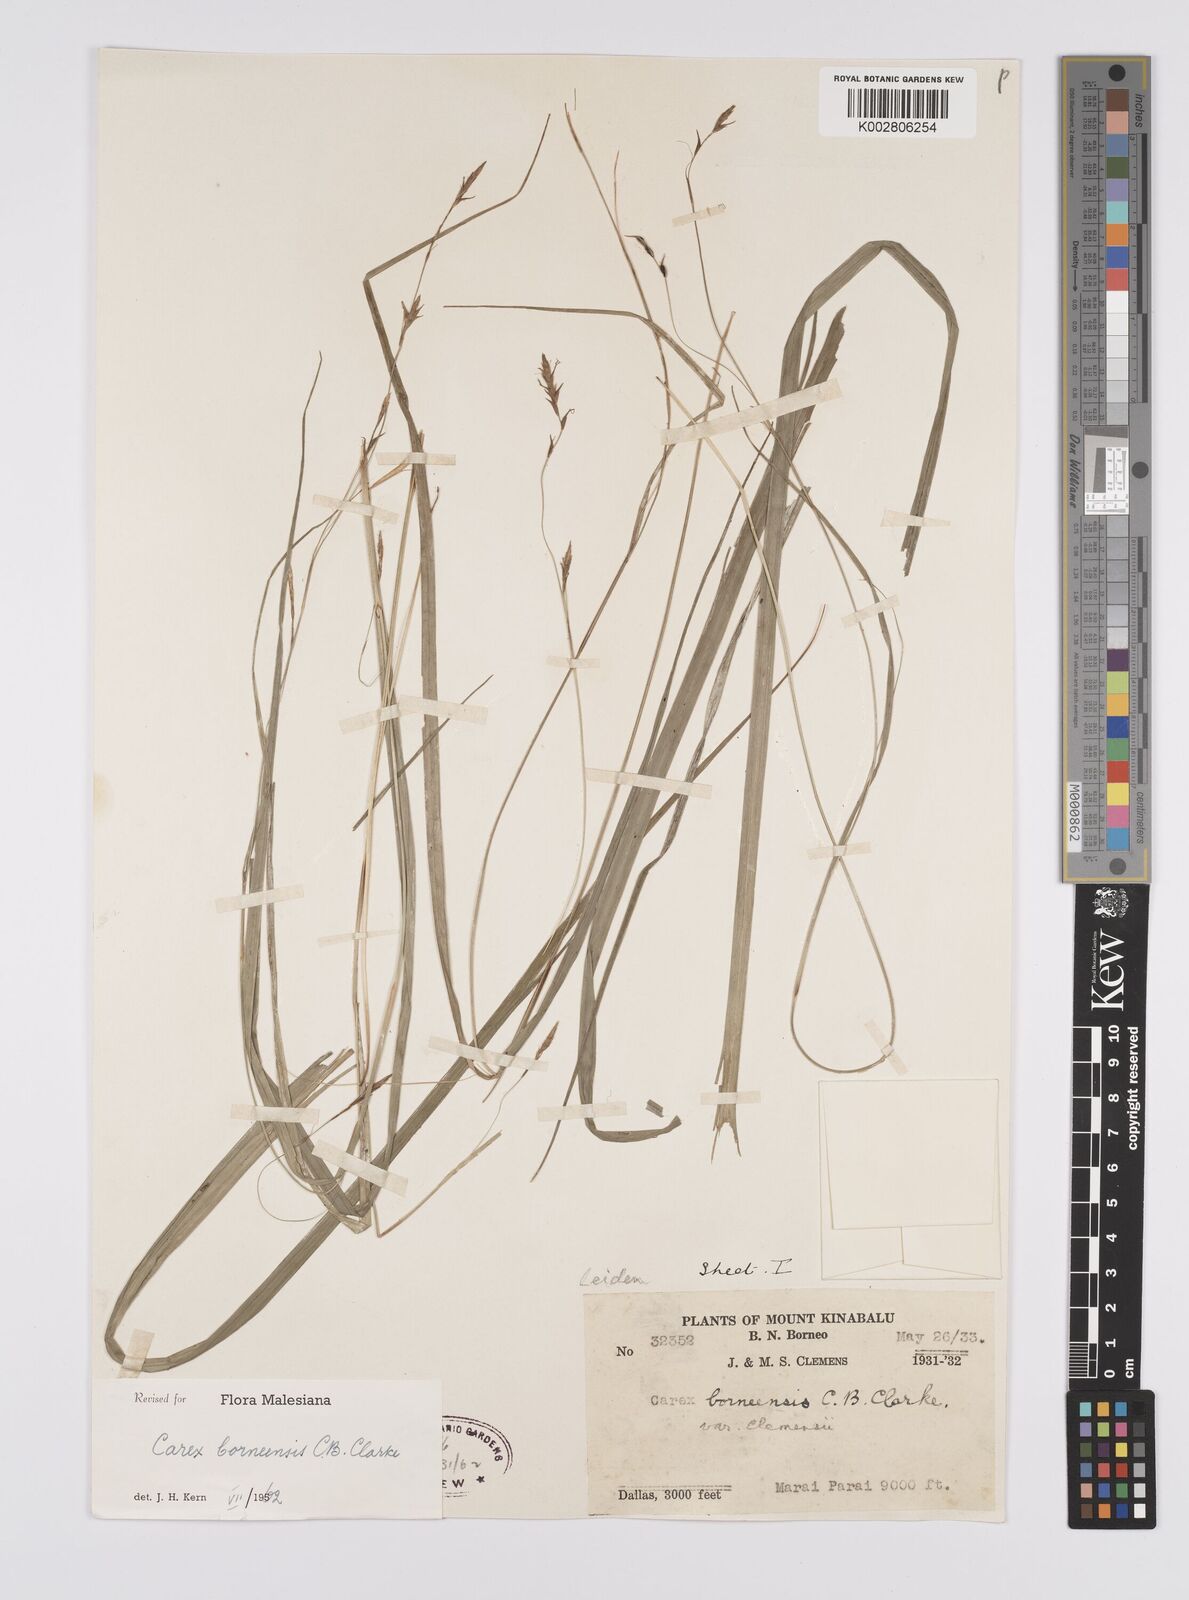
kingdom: Plantae
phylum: Tracheophyta
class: Liliopsida
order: Poales
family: Cyperaceae
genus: Carex
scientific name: Carex perakensis
